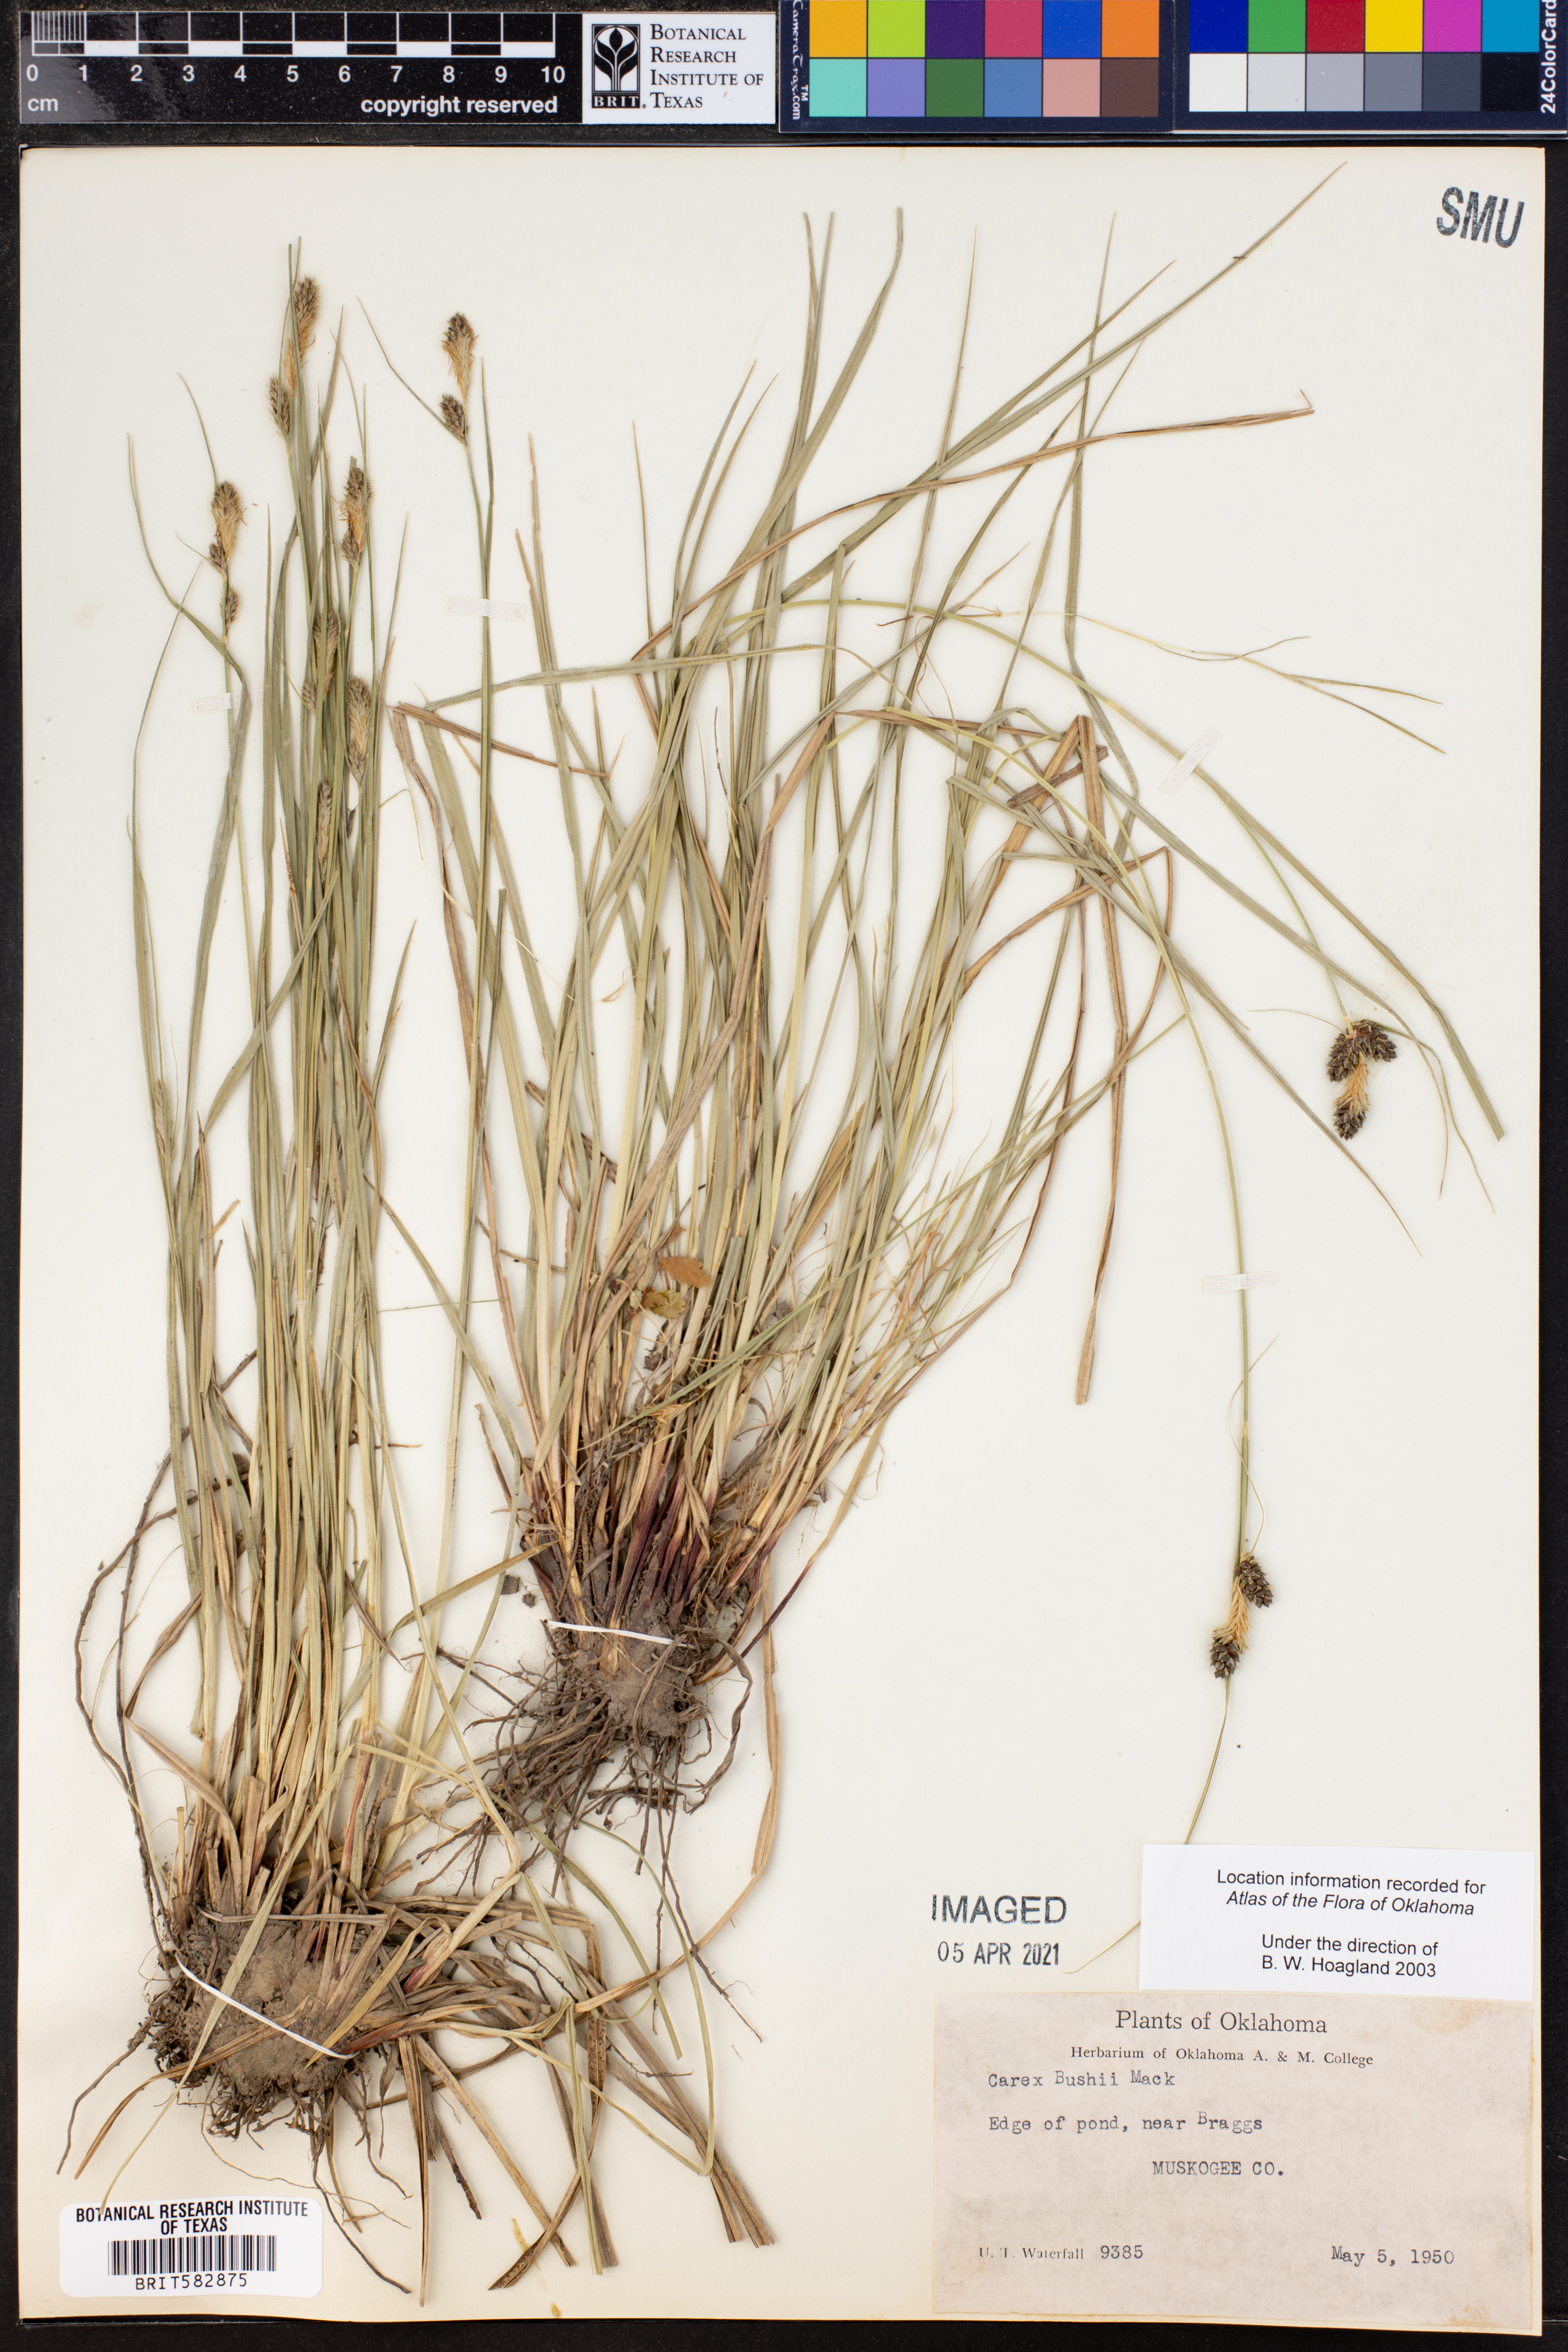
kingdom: Plantae
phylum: Tracheophyta
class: Liliopsida
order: Poales
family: Cyperaceae
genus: Carex
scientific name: Carex bushii
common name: Bush's sedge
